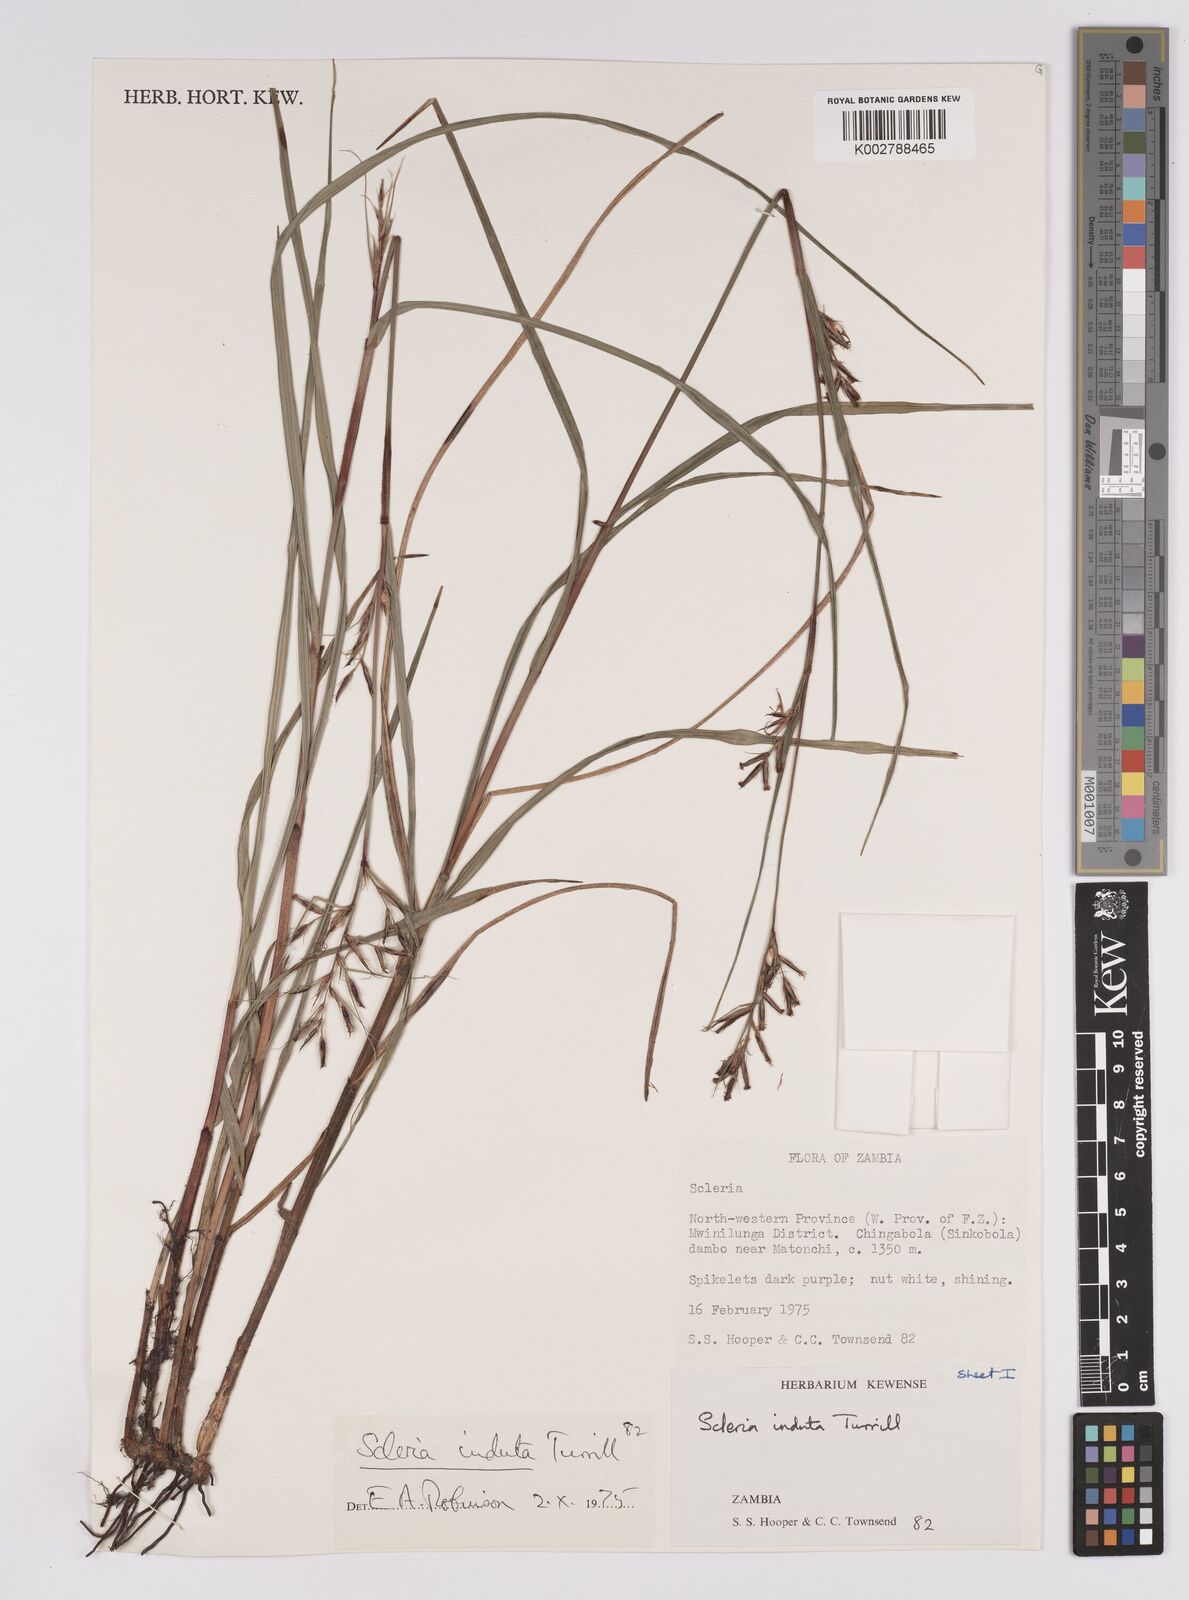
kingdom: Plantae
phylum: Tracheophyta
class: Liliopsida
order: Poales
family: Cyperaceae
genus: Scleria
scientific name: Scleria induta
